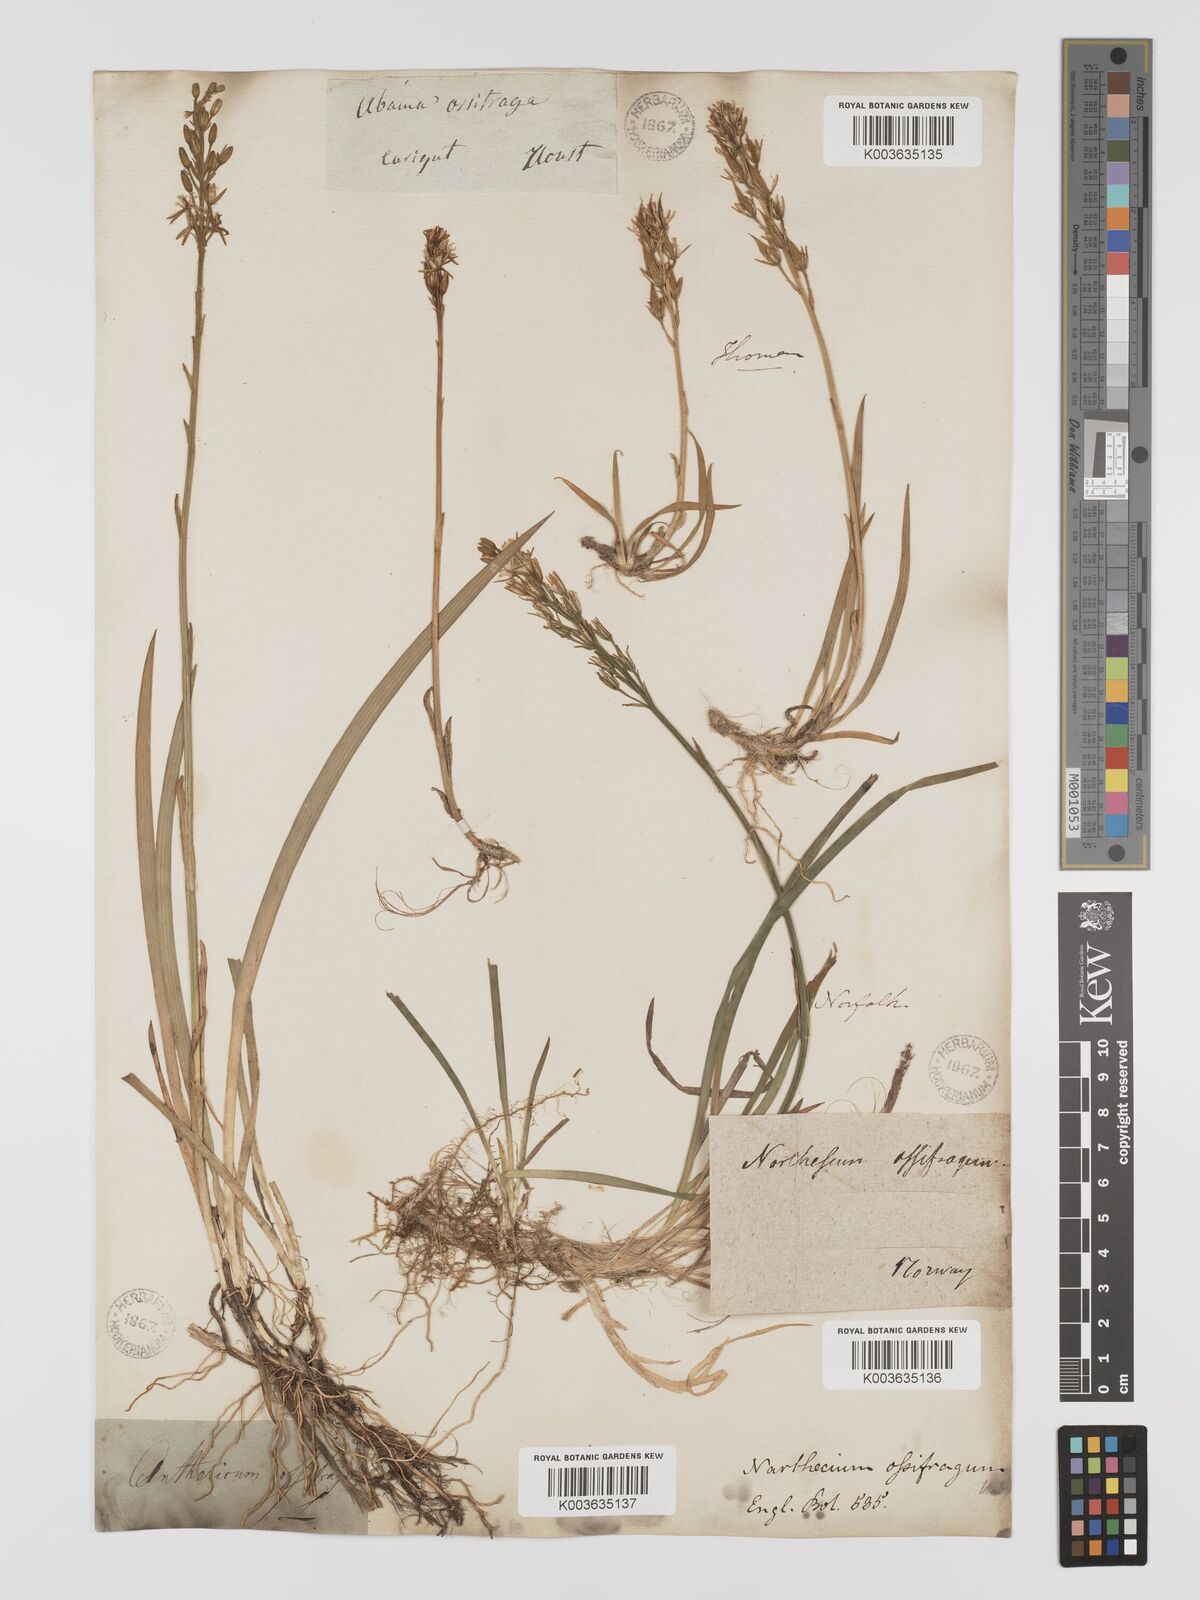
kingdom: Plantae
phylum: Tracheophyta
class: Liliopsida
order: Dioscoreales
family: Nartheciaceae
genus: Narthecium
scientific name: Narthecium ossifragum
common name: Bog asphodel
